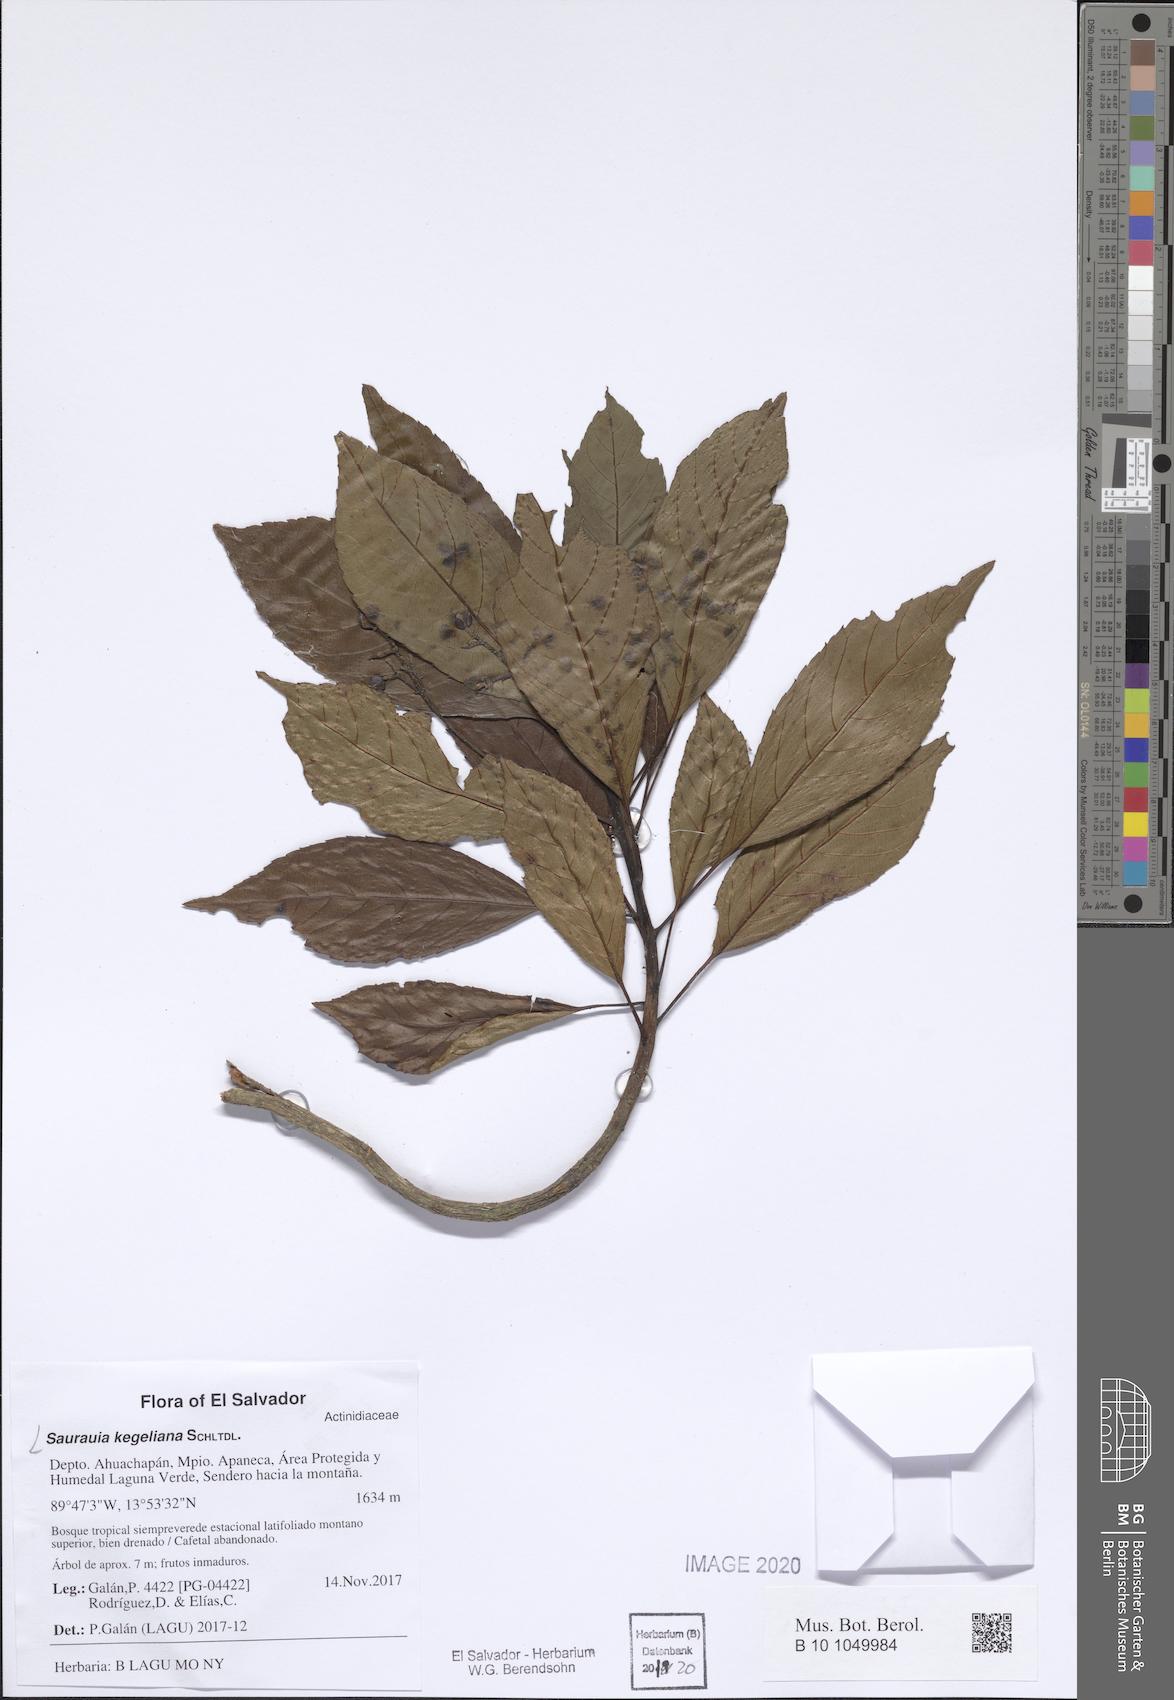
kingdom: Plantae
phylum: Tracheophyta
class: Magnoliopsida
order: Ericales
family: Actinidiaceae
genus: Saurauia
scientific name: Saurauia kegeliana
